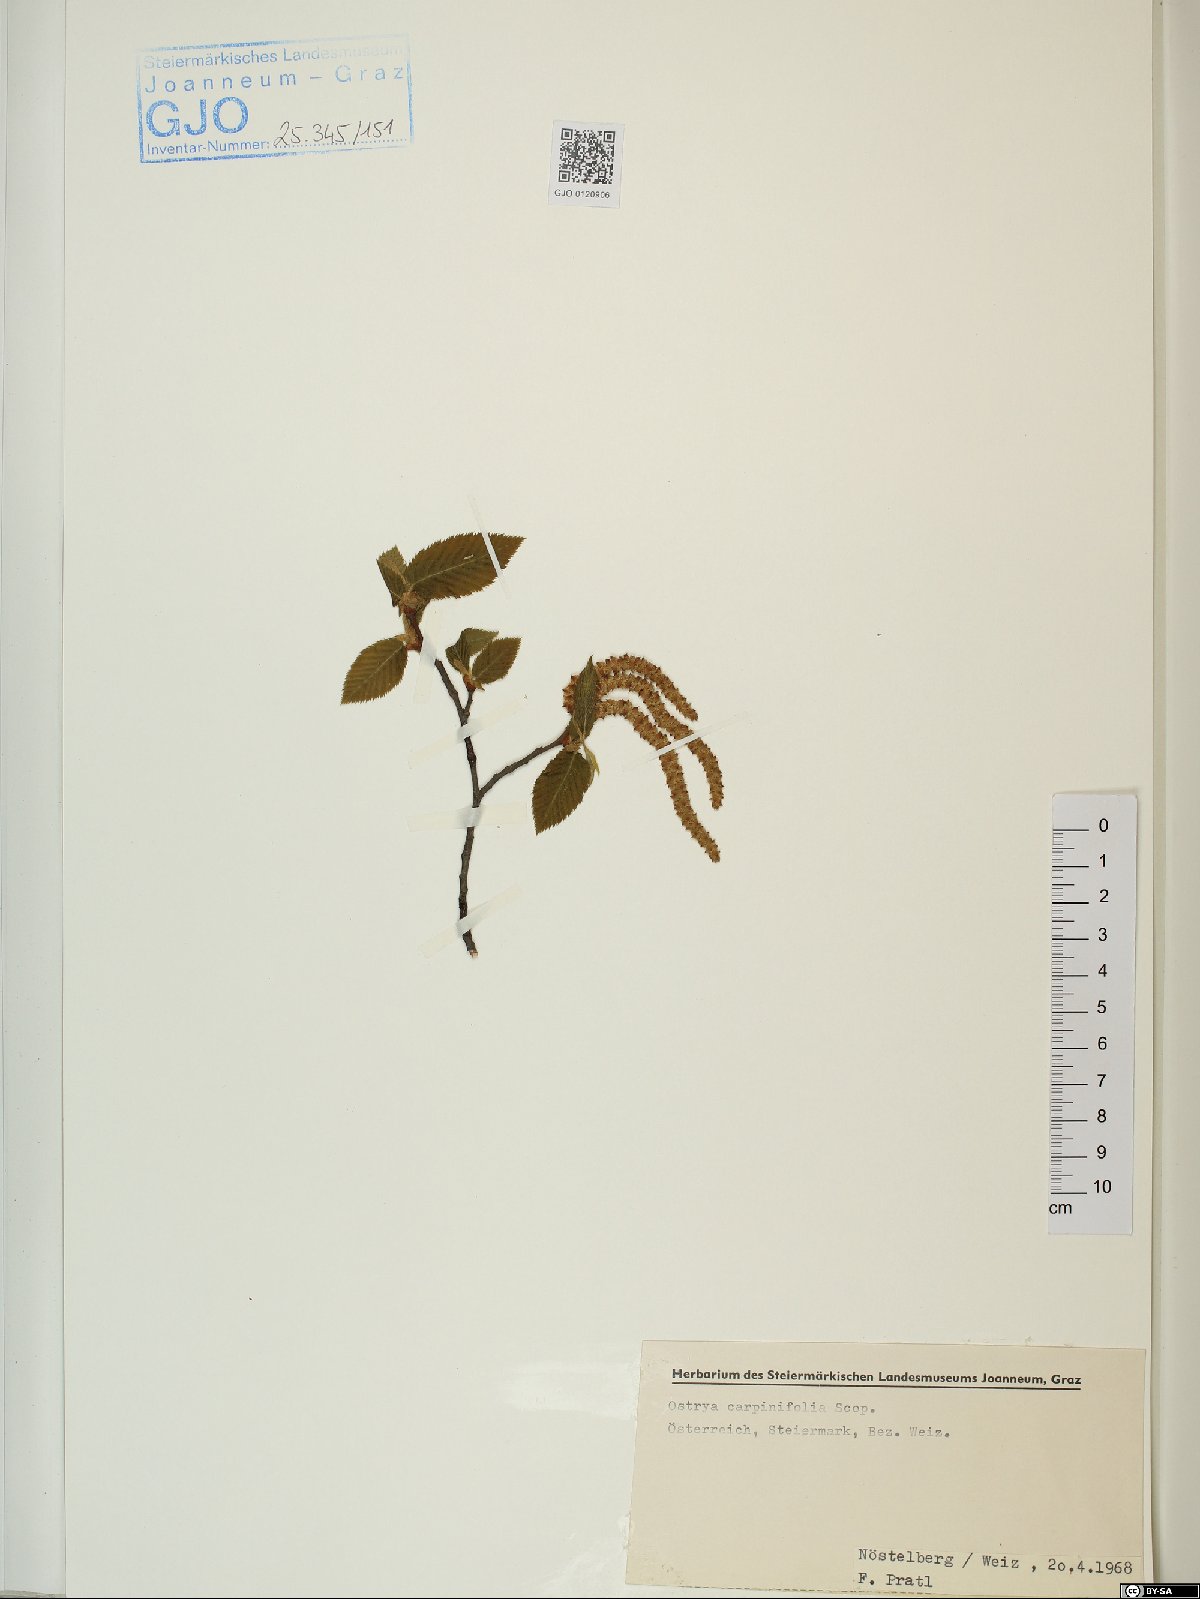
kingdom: Plantae
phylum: Tracheophyta
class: Magnoliopsida
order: Fagales
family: Betulaceae
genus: Ostrya
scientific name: Ostrya carpinifolia
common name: European hop-hornbeam
